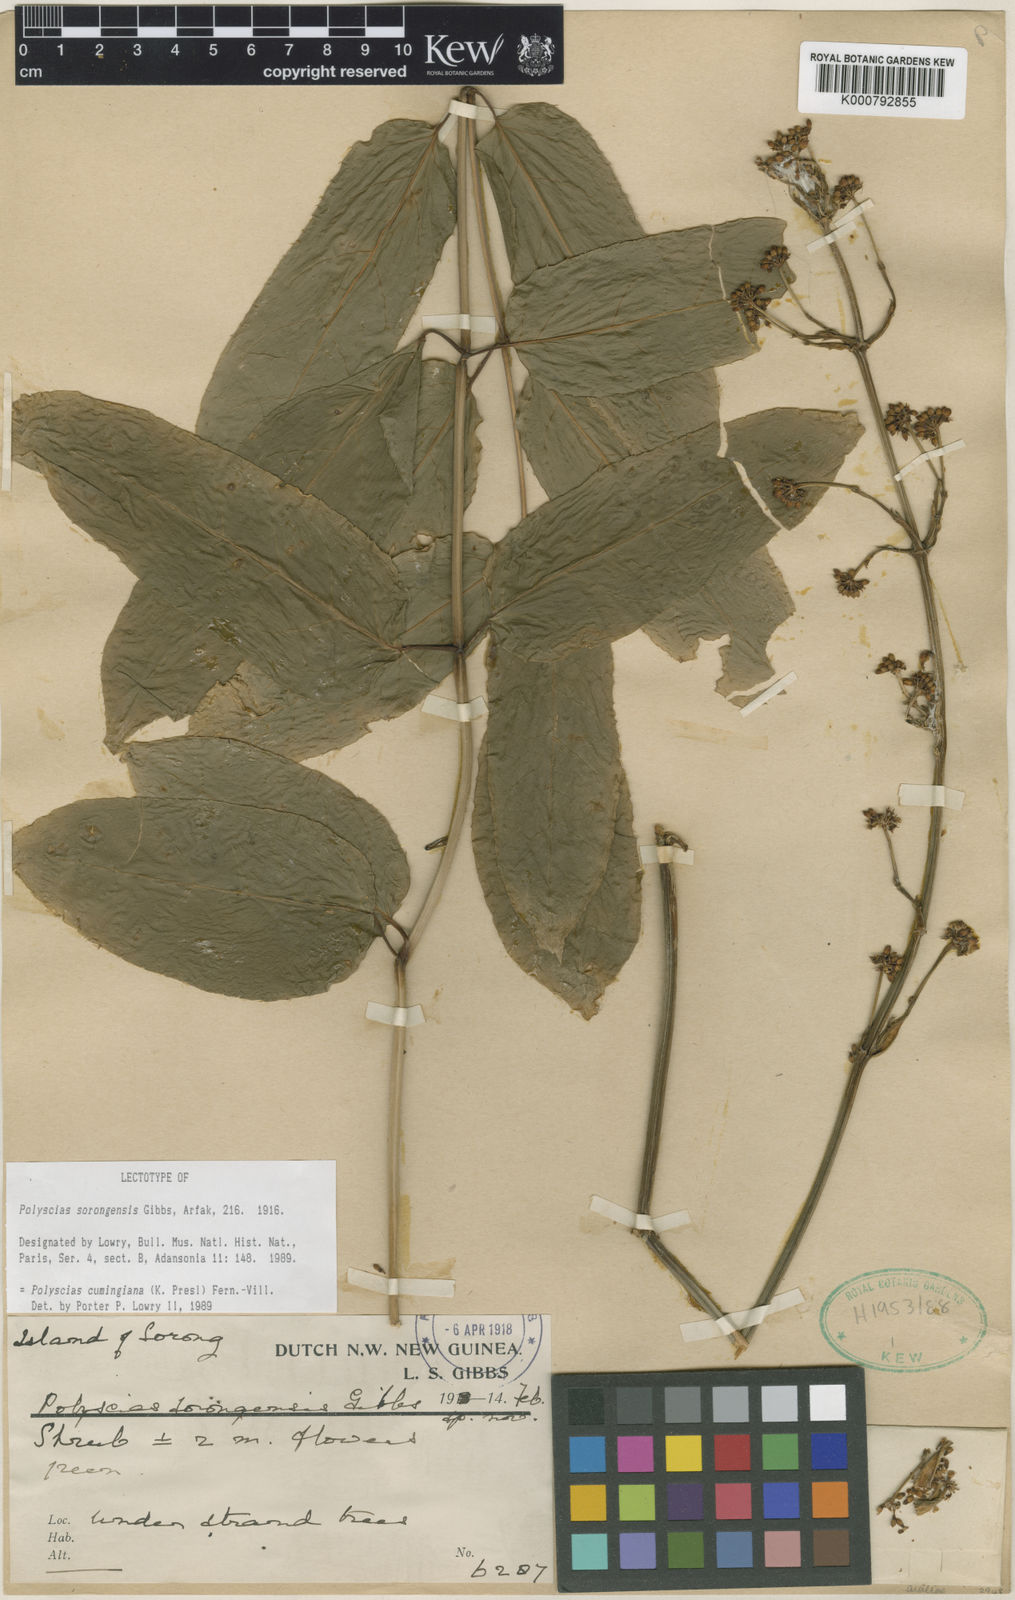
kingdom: Plantae
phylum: Tracheophyta
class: Magnoliopsida
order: Apiales
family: Araliaceae
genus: Polyscias
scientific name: Polyscias cumingiana
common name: Fern-leaf aralia
